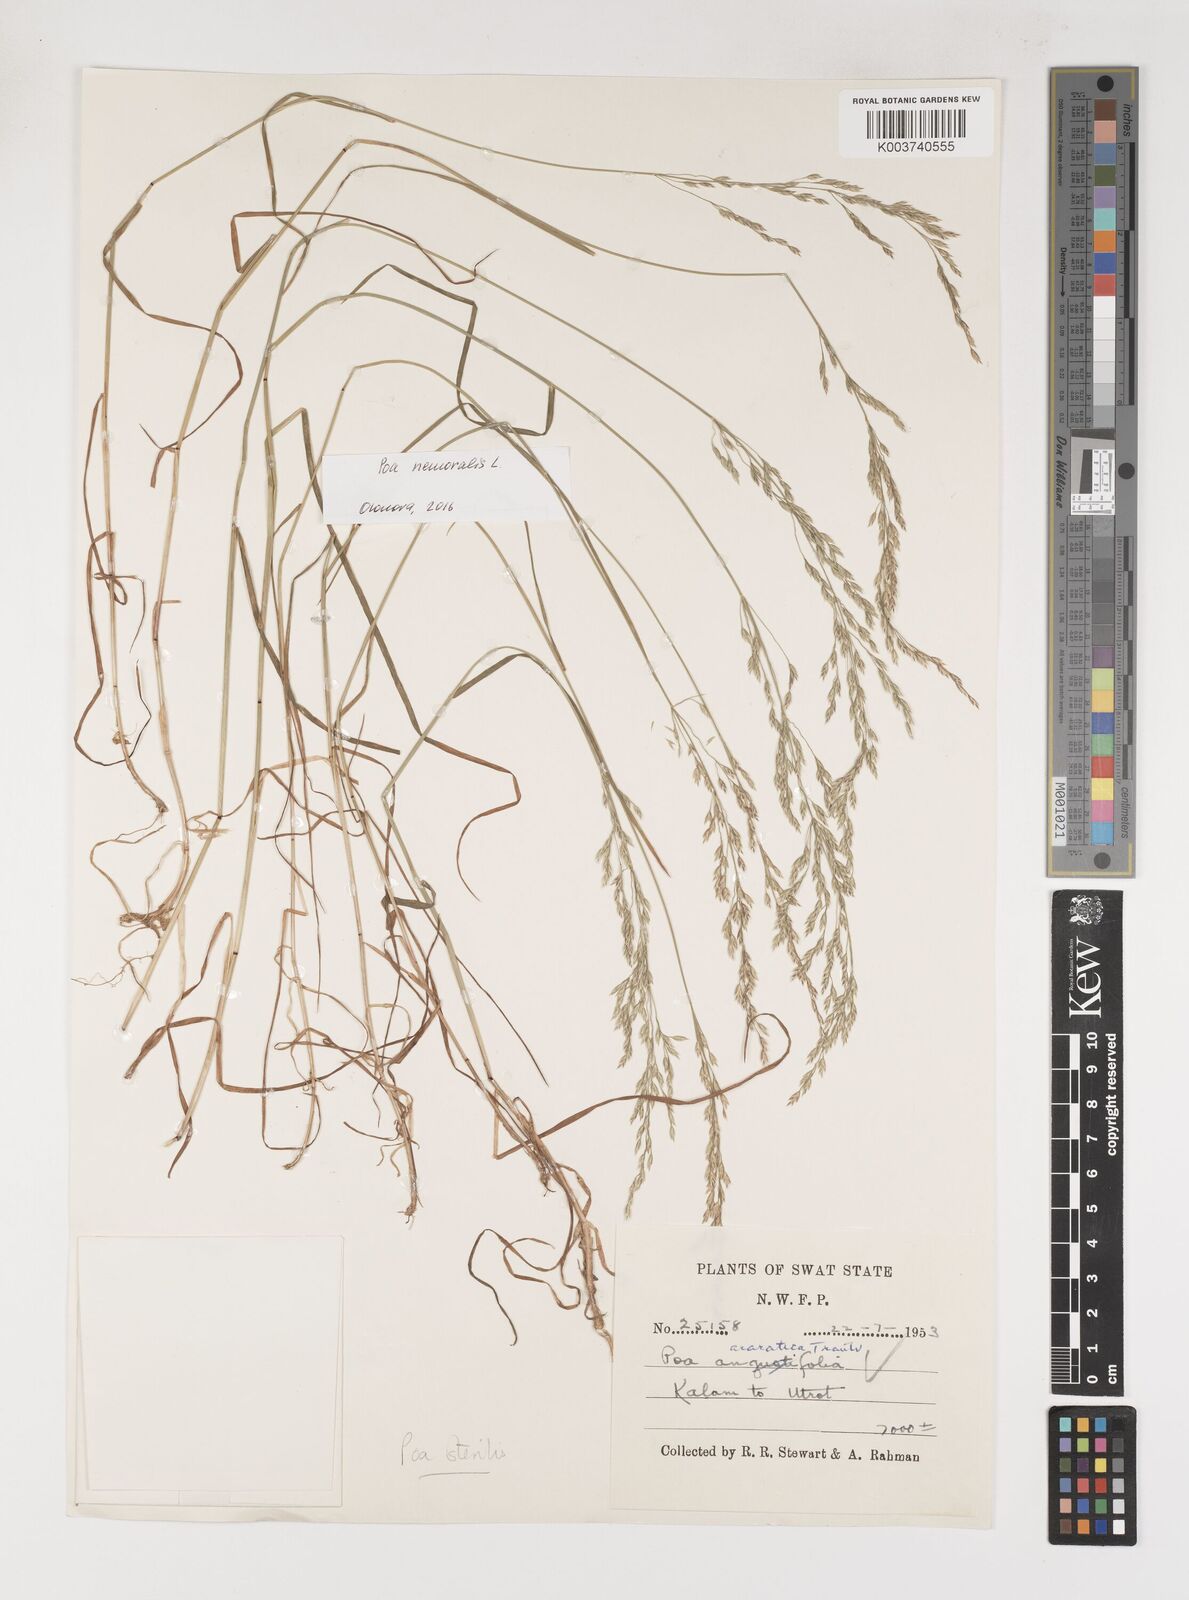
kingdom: Plantae
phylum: Tracheophyta
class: Liliopsida
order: Poales
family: Poaceae
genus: Poa
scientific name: Poa sterilis
